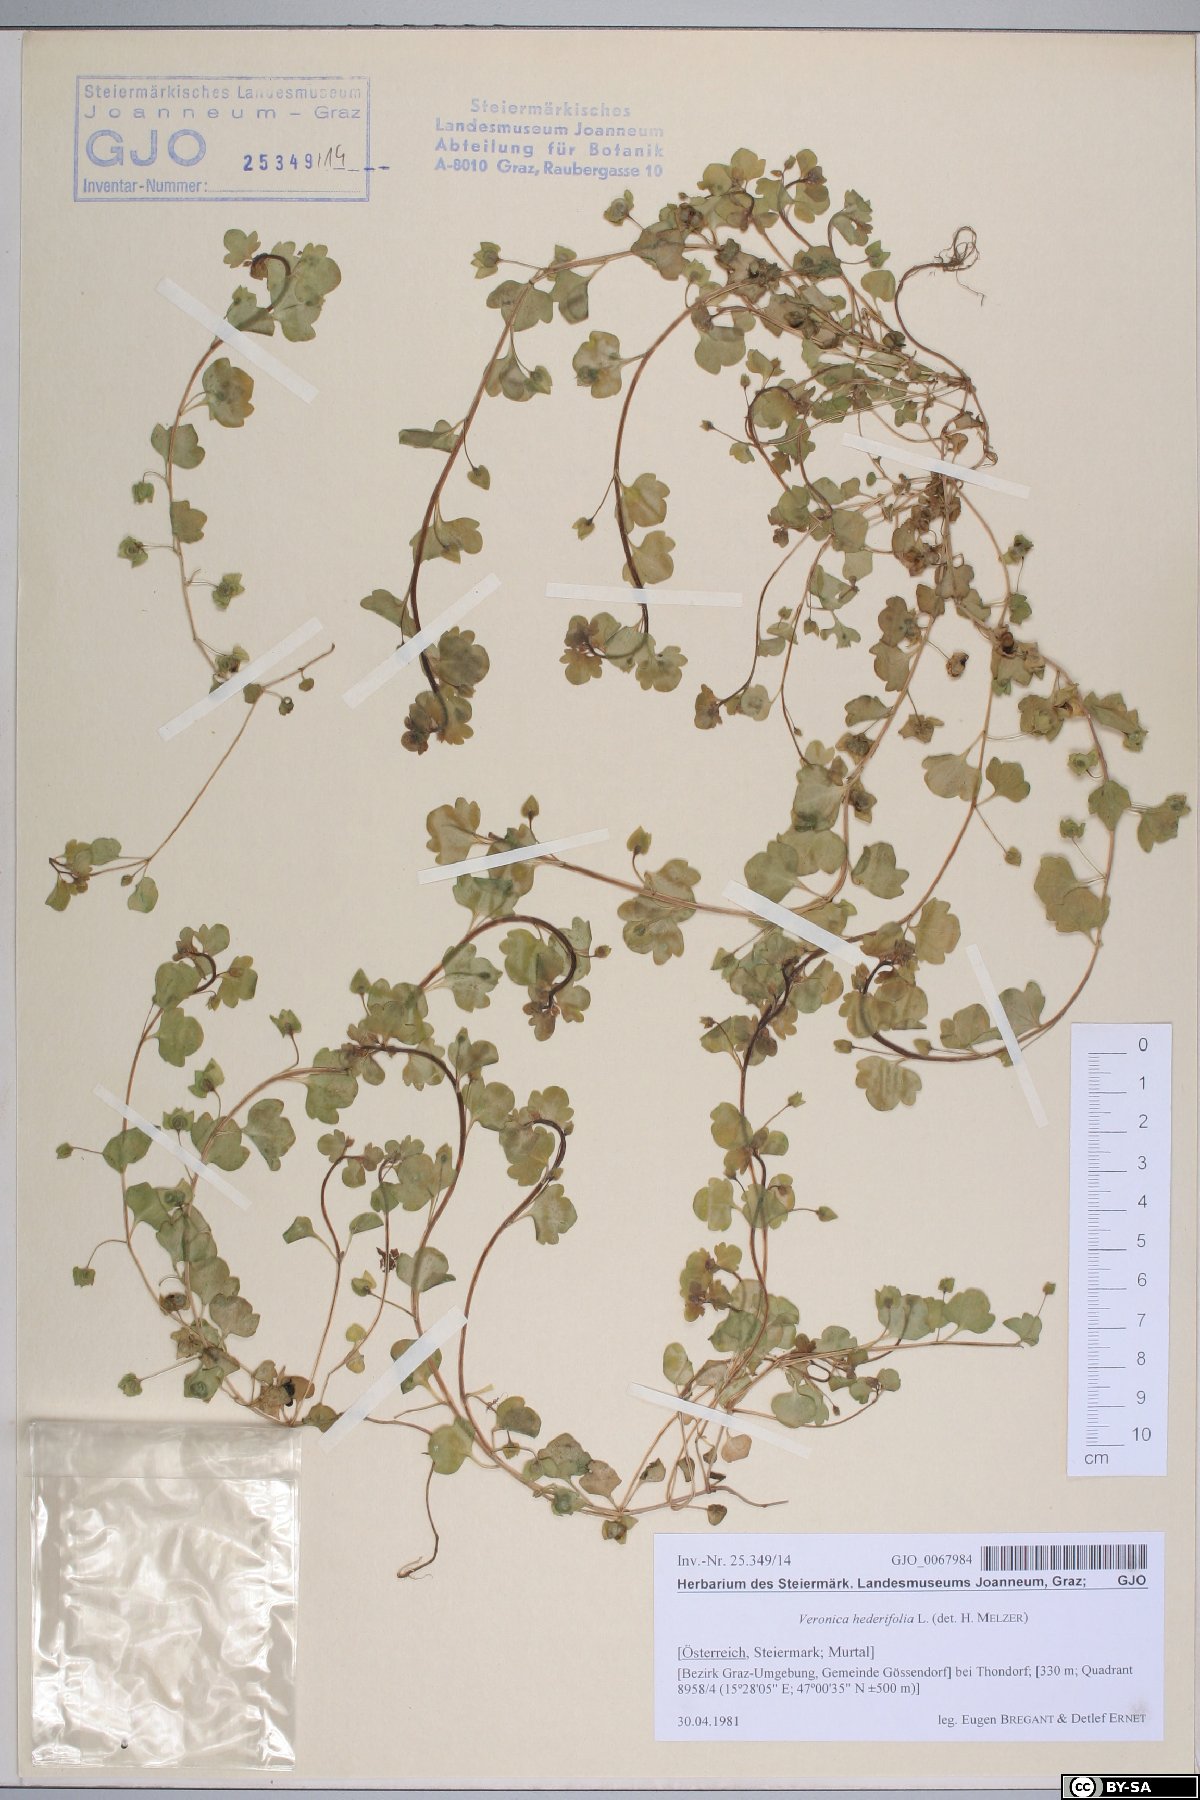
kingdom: Plantae
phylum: Tracheophyta
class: Magnoliopsida
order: Lamiales
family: Plantaginaceae
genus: Veronica
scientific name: Veronica hederifolia
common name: Ivy-leaved speedwell
